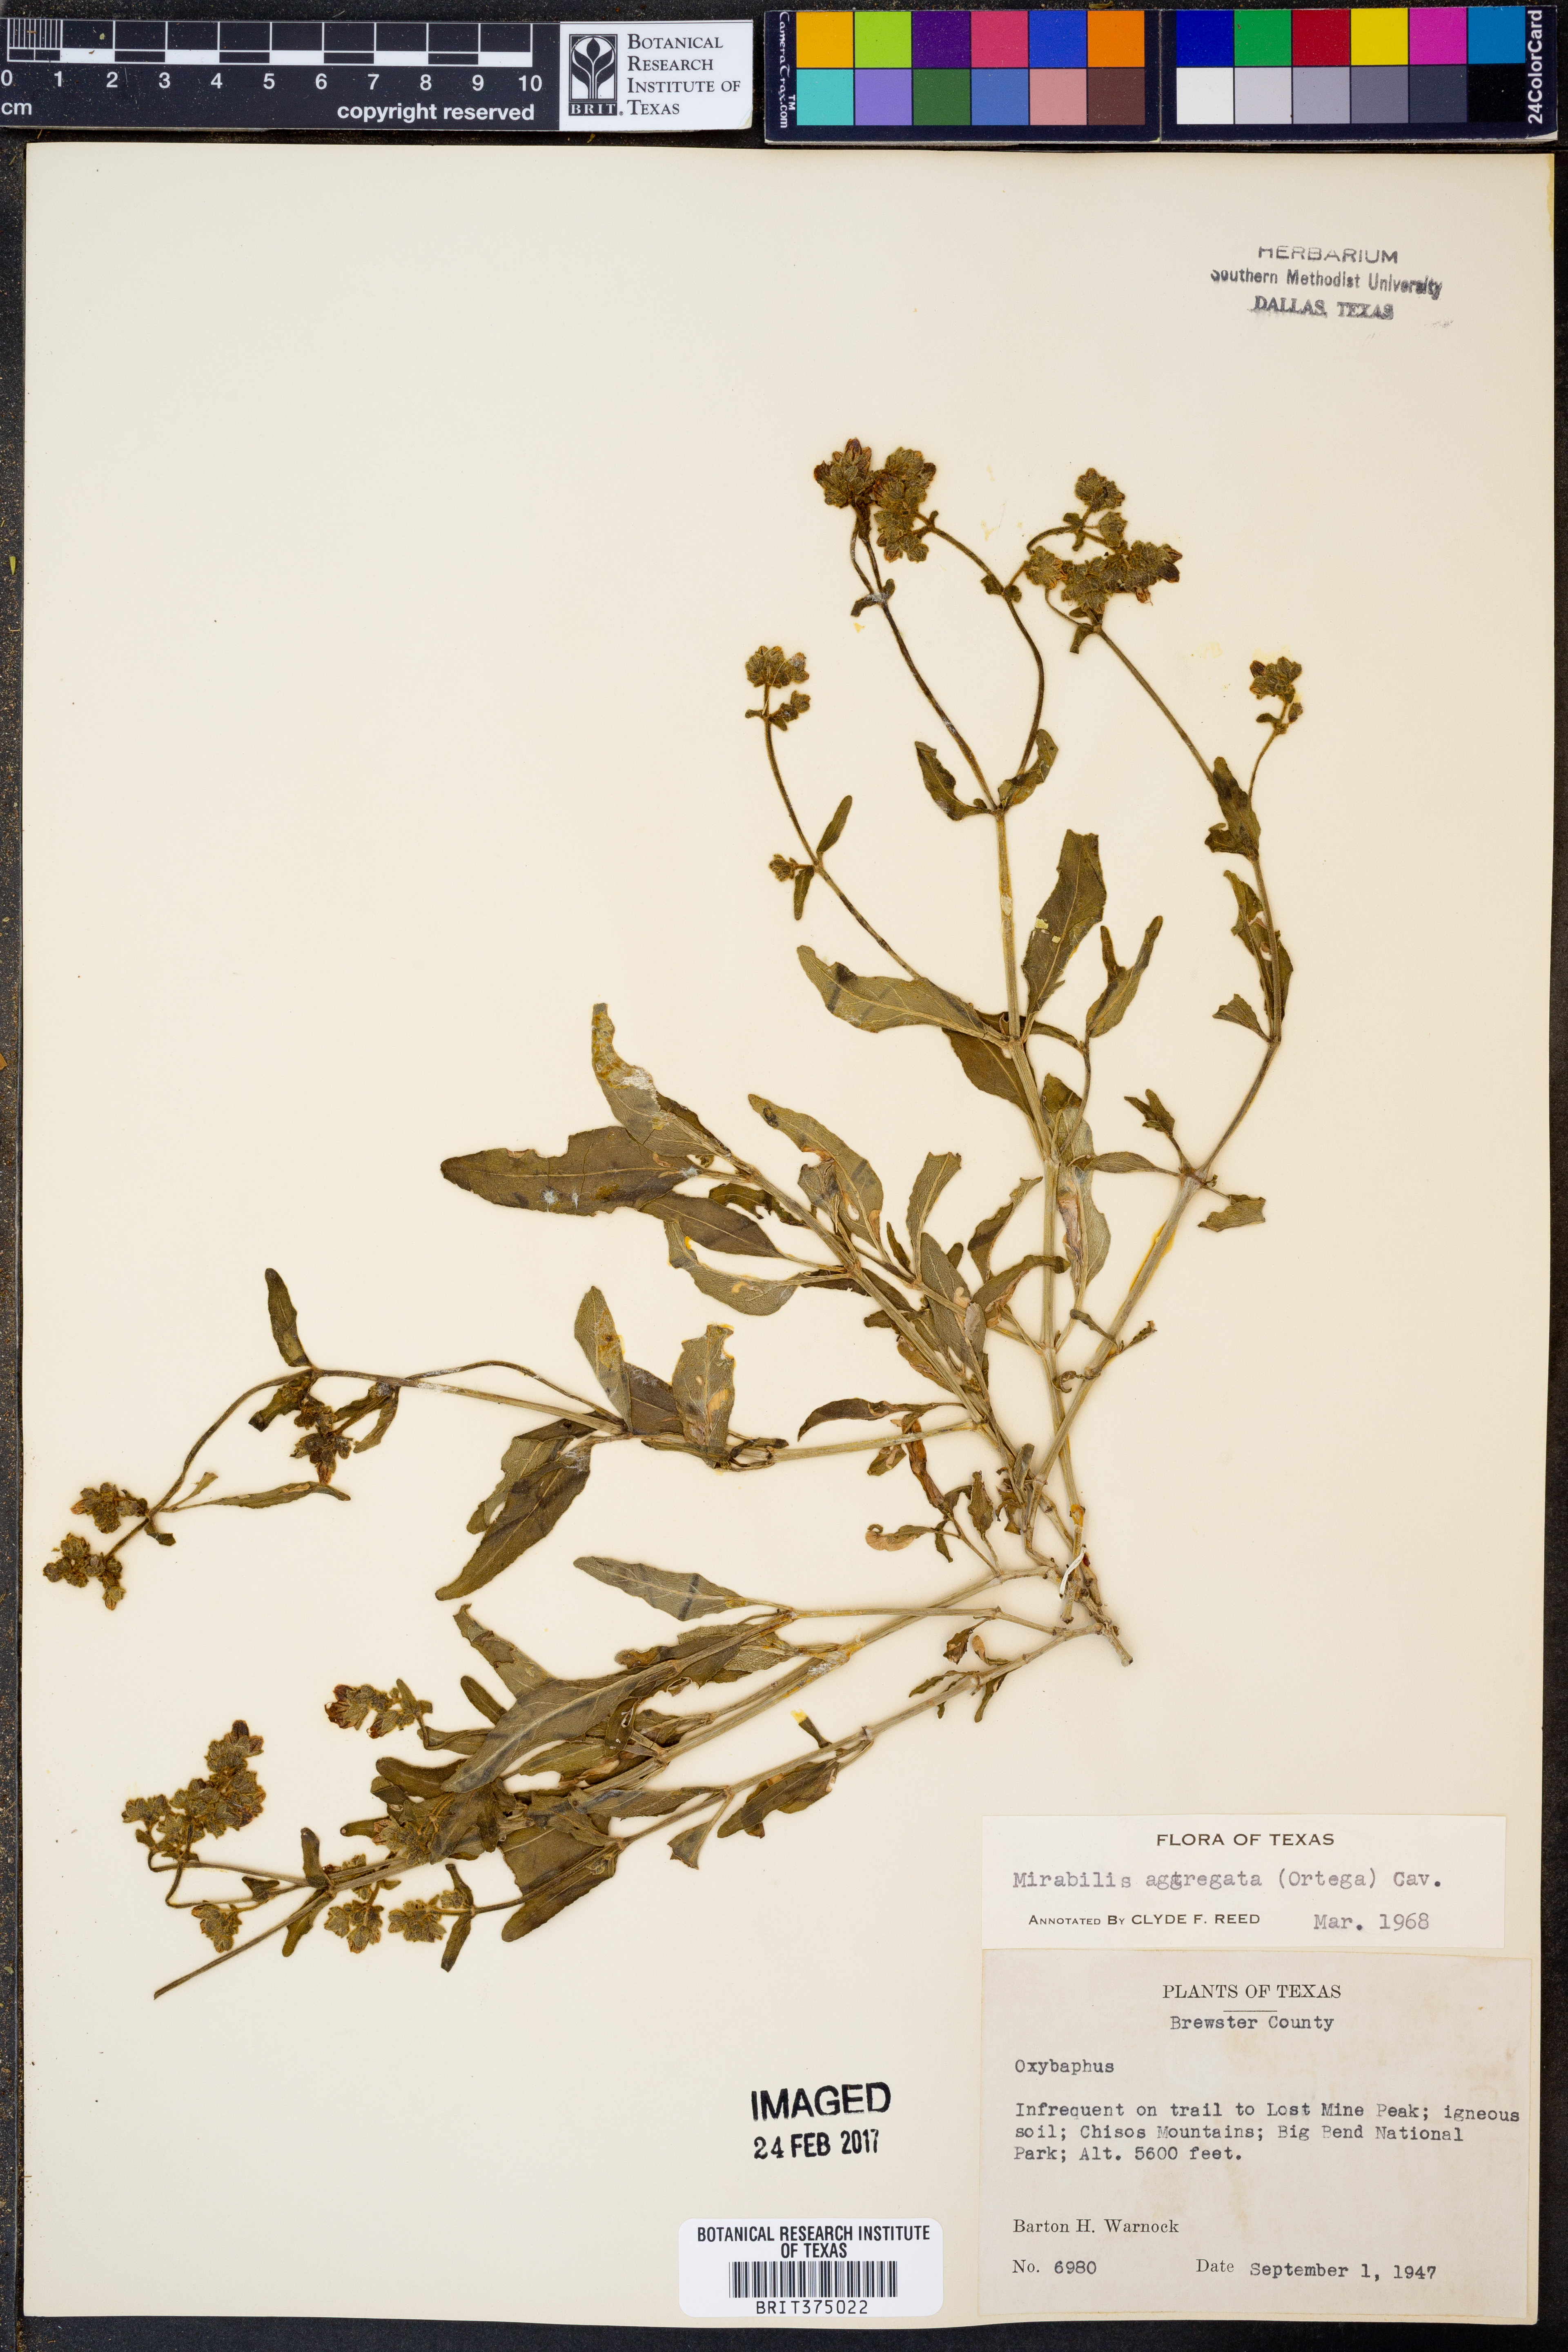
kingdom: Plantae
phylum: Tracheophyta
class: Magnoliopsida
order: Caryophyllales
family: Nyctaginaceae
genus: Mirabilis
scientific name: Mirabilis aggregata
